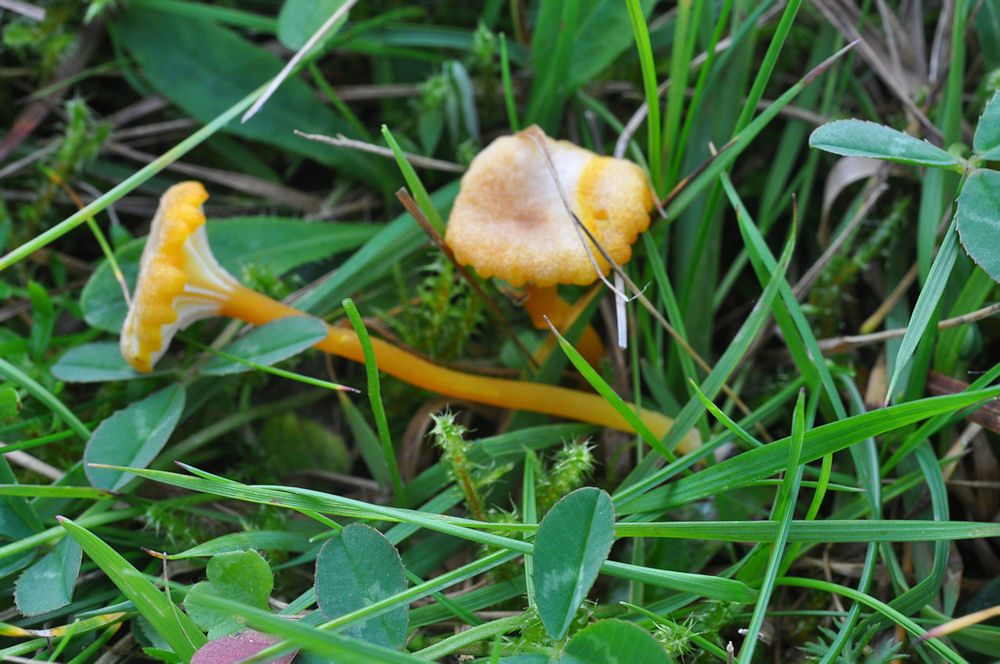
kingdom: Fungi
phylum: Basidiomycota
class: Agaricomycetes
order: Agaricales
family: Hygrophoraceae
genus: Hygrocybe
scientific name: Hygrocybe cantharellus
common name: kantarel-vokshat
